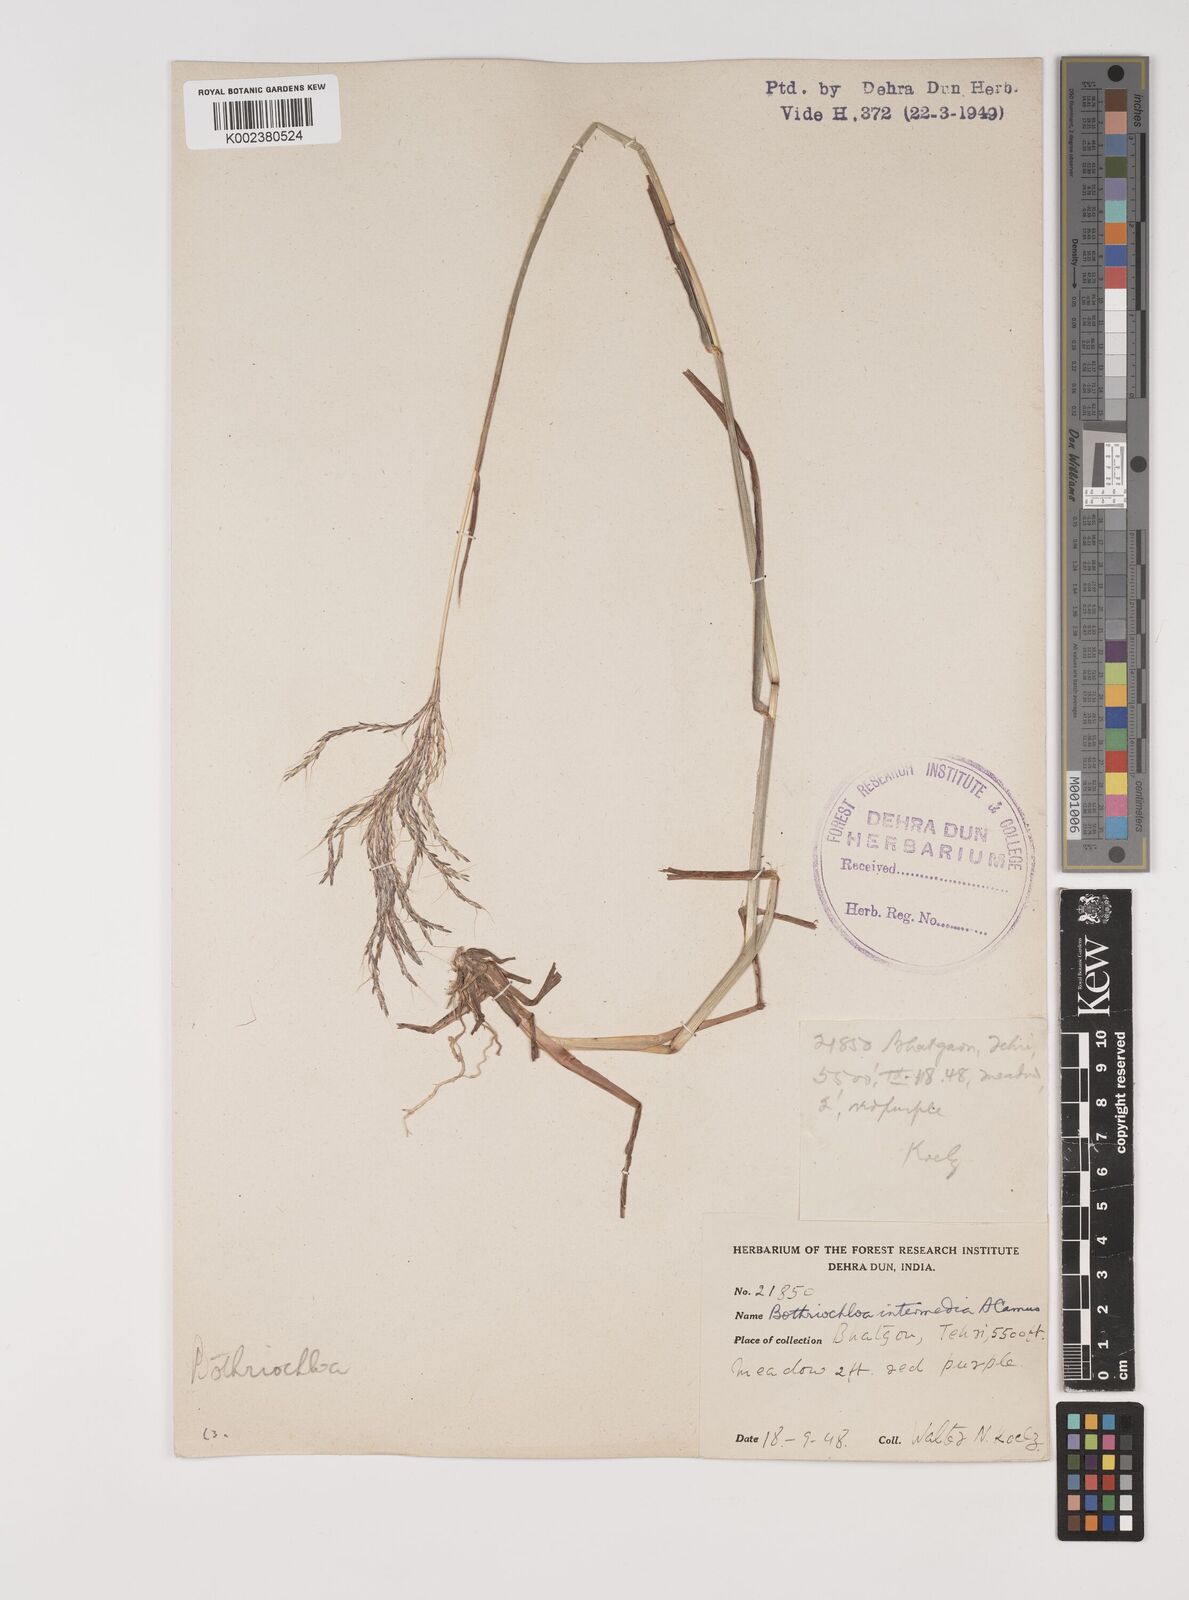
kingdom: Plantae
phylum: Tracheophyta
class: Liliopsida
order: Poales
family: Poaceae
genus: Bothriochloa
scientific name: Bothriochloa bladhii
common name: Caucasian bluestem
